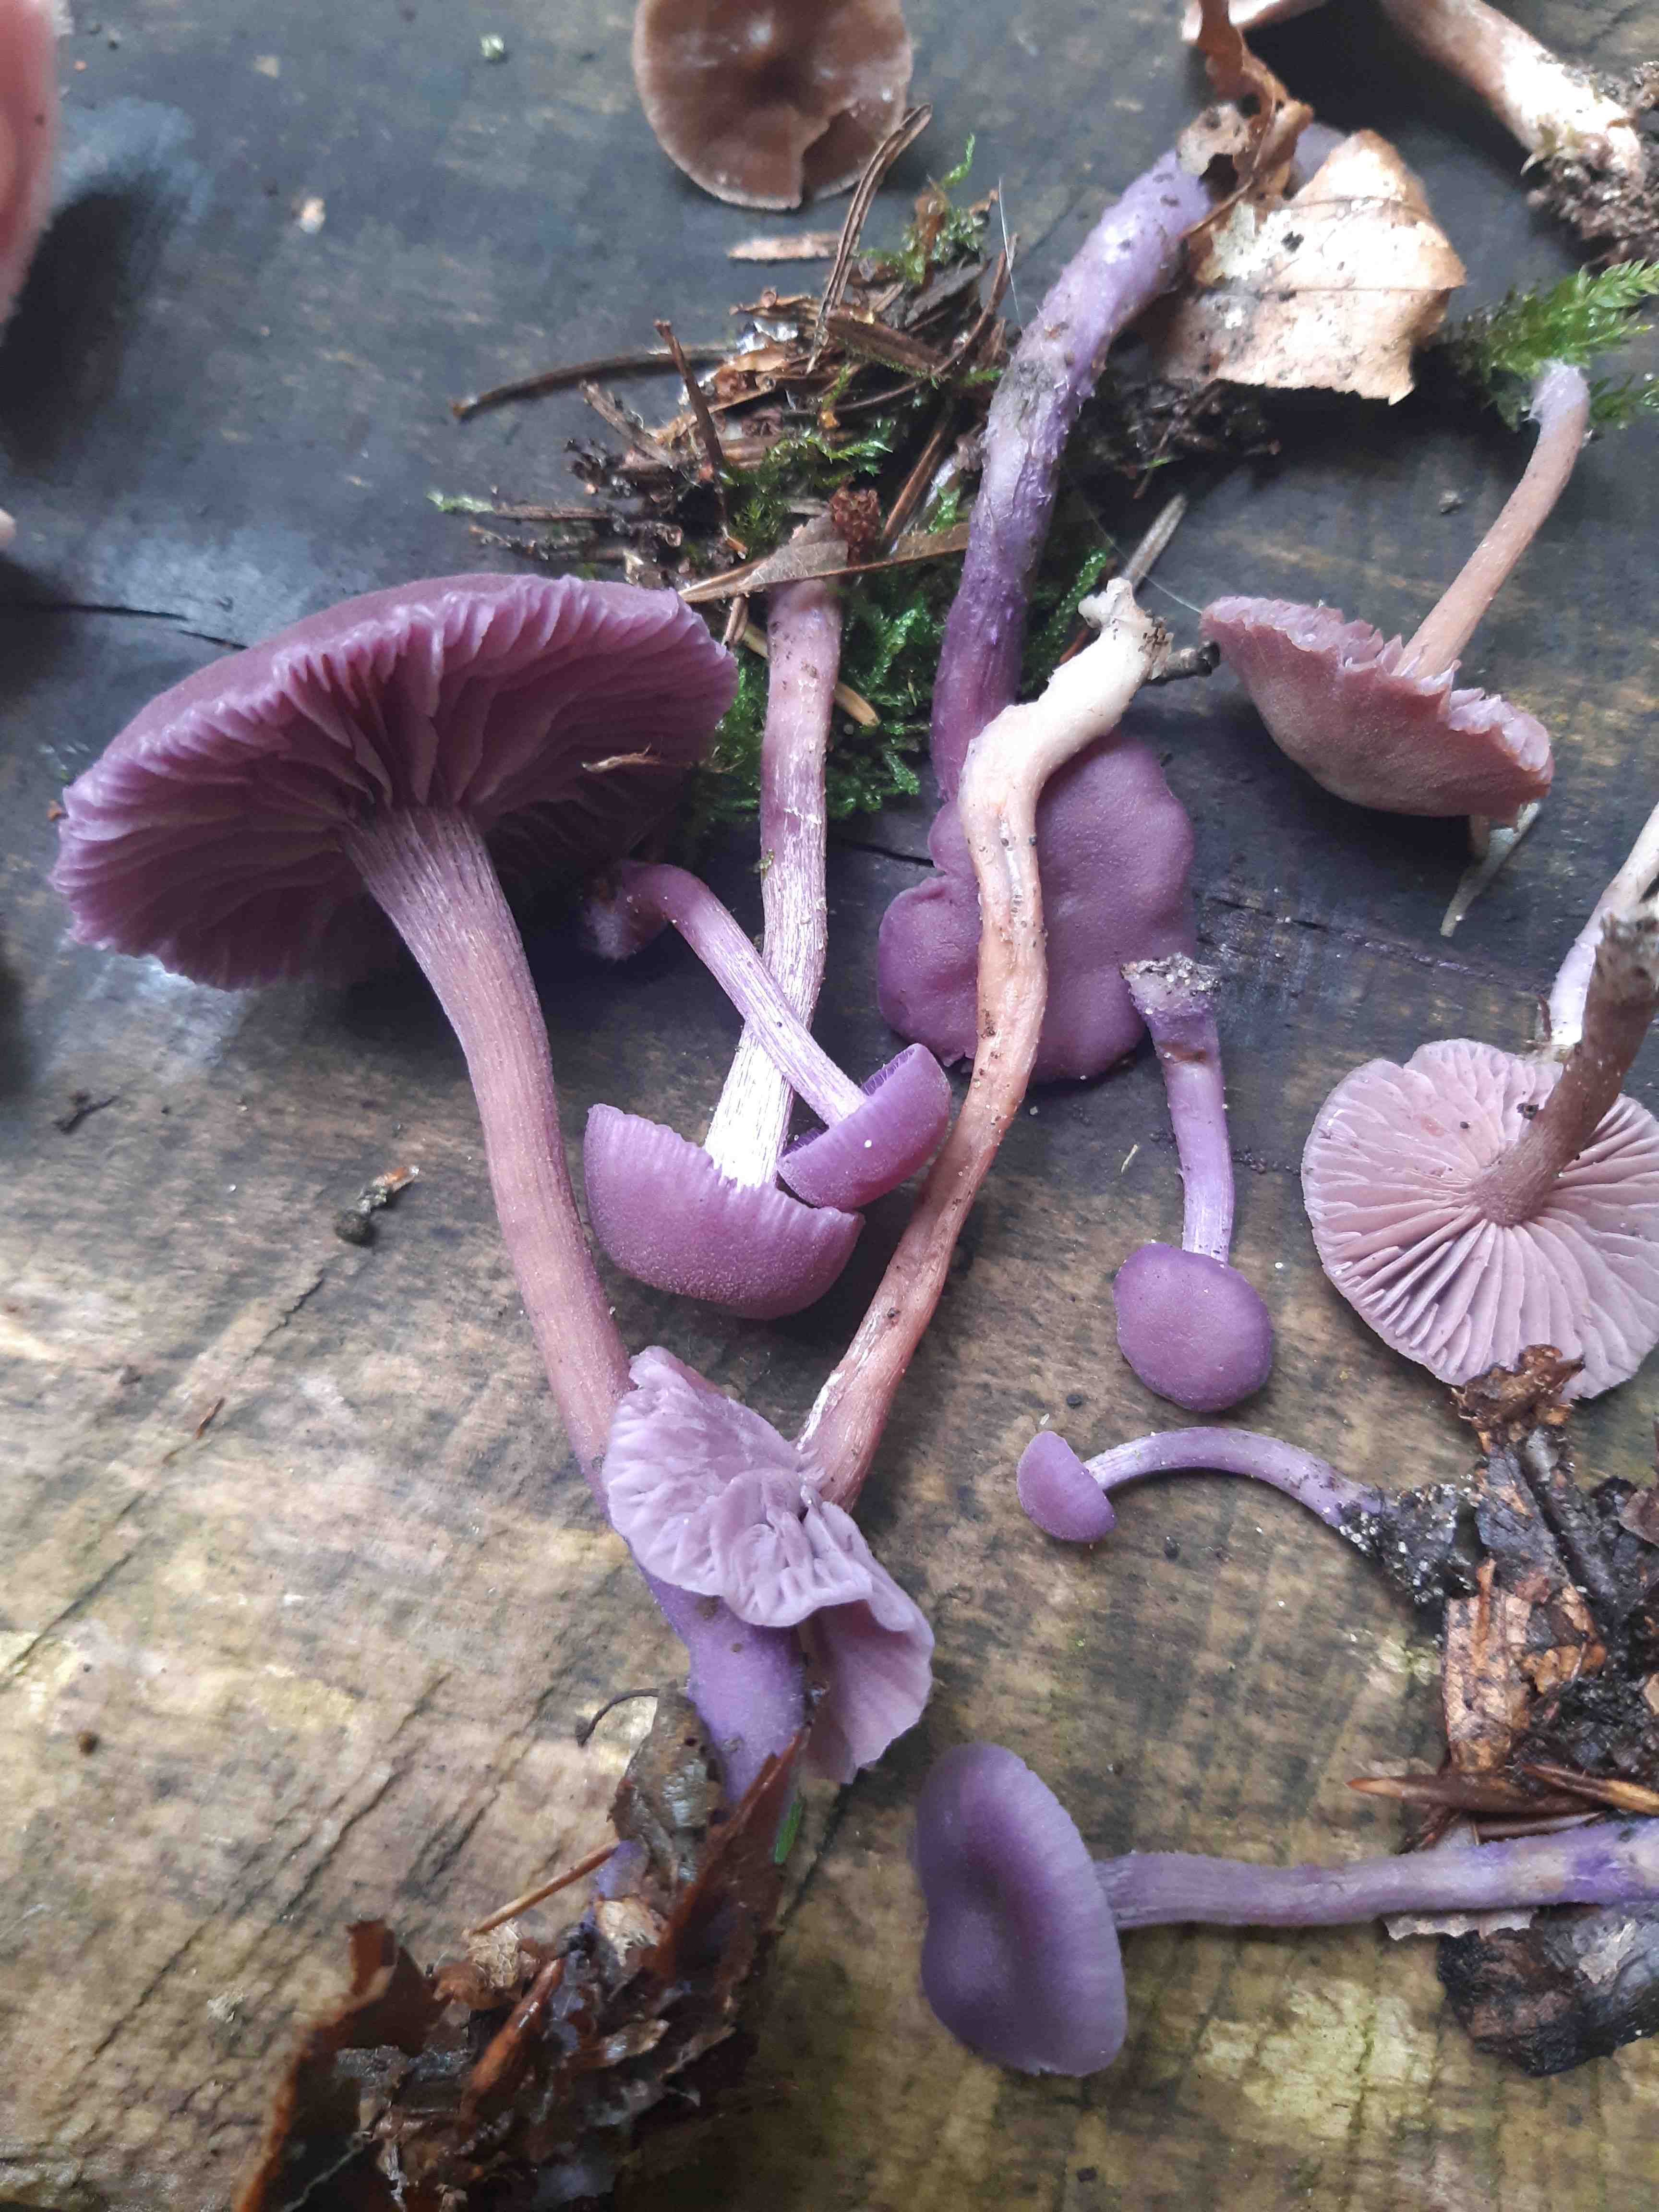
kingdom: Fungi
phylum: Basidiomycota
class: Agaricomycetes
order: Agaricales
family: Hydnangiaceae
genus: Laccaria
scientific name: Laccaria amethystina
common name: violet ametysthat
